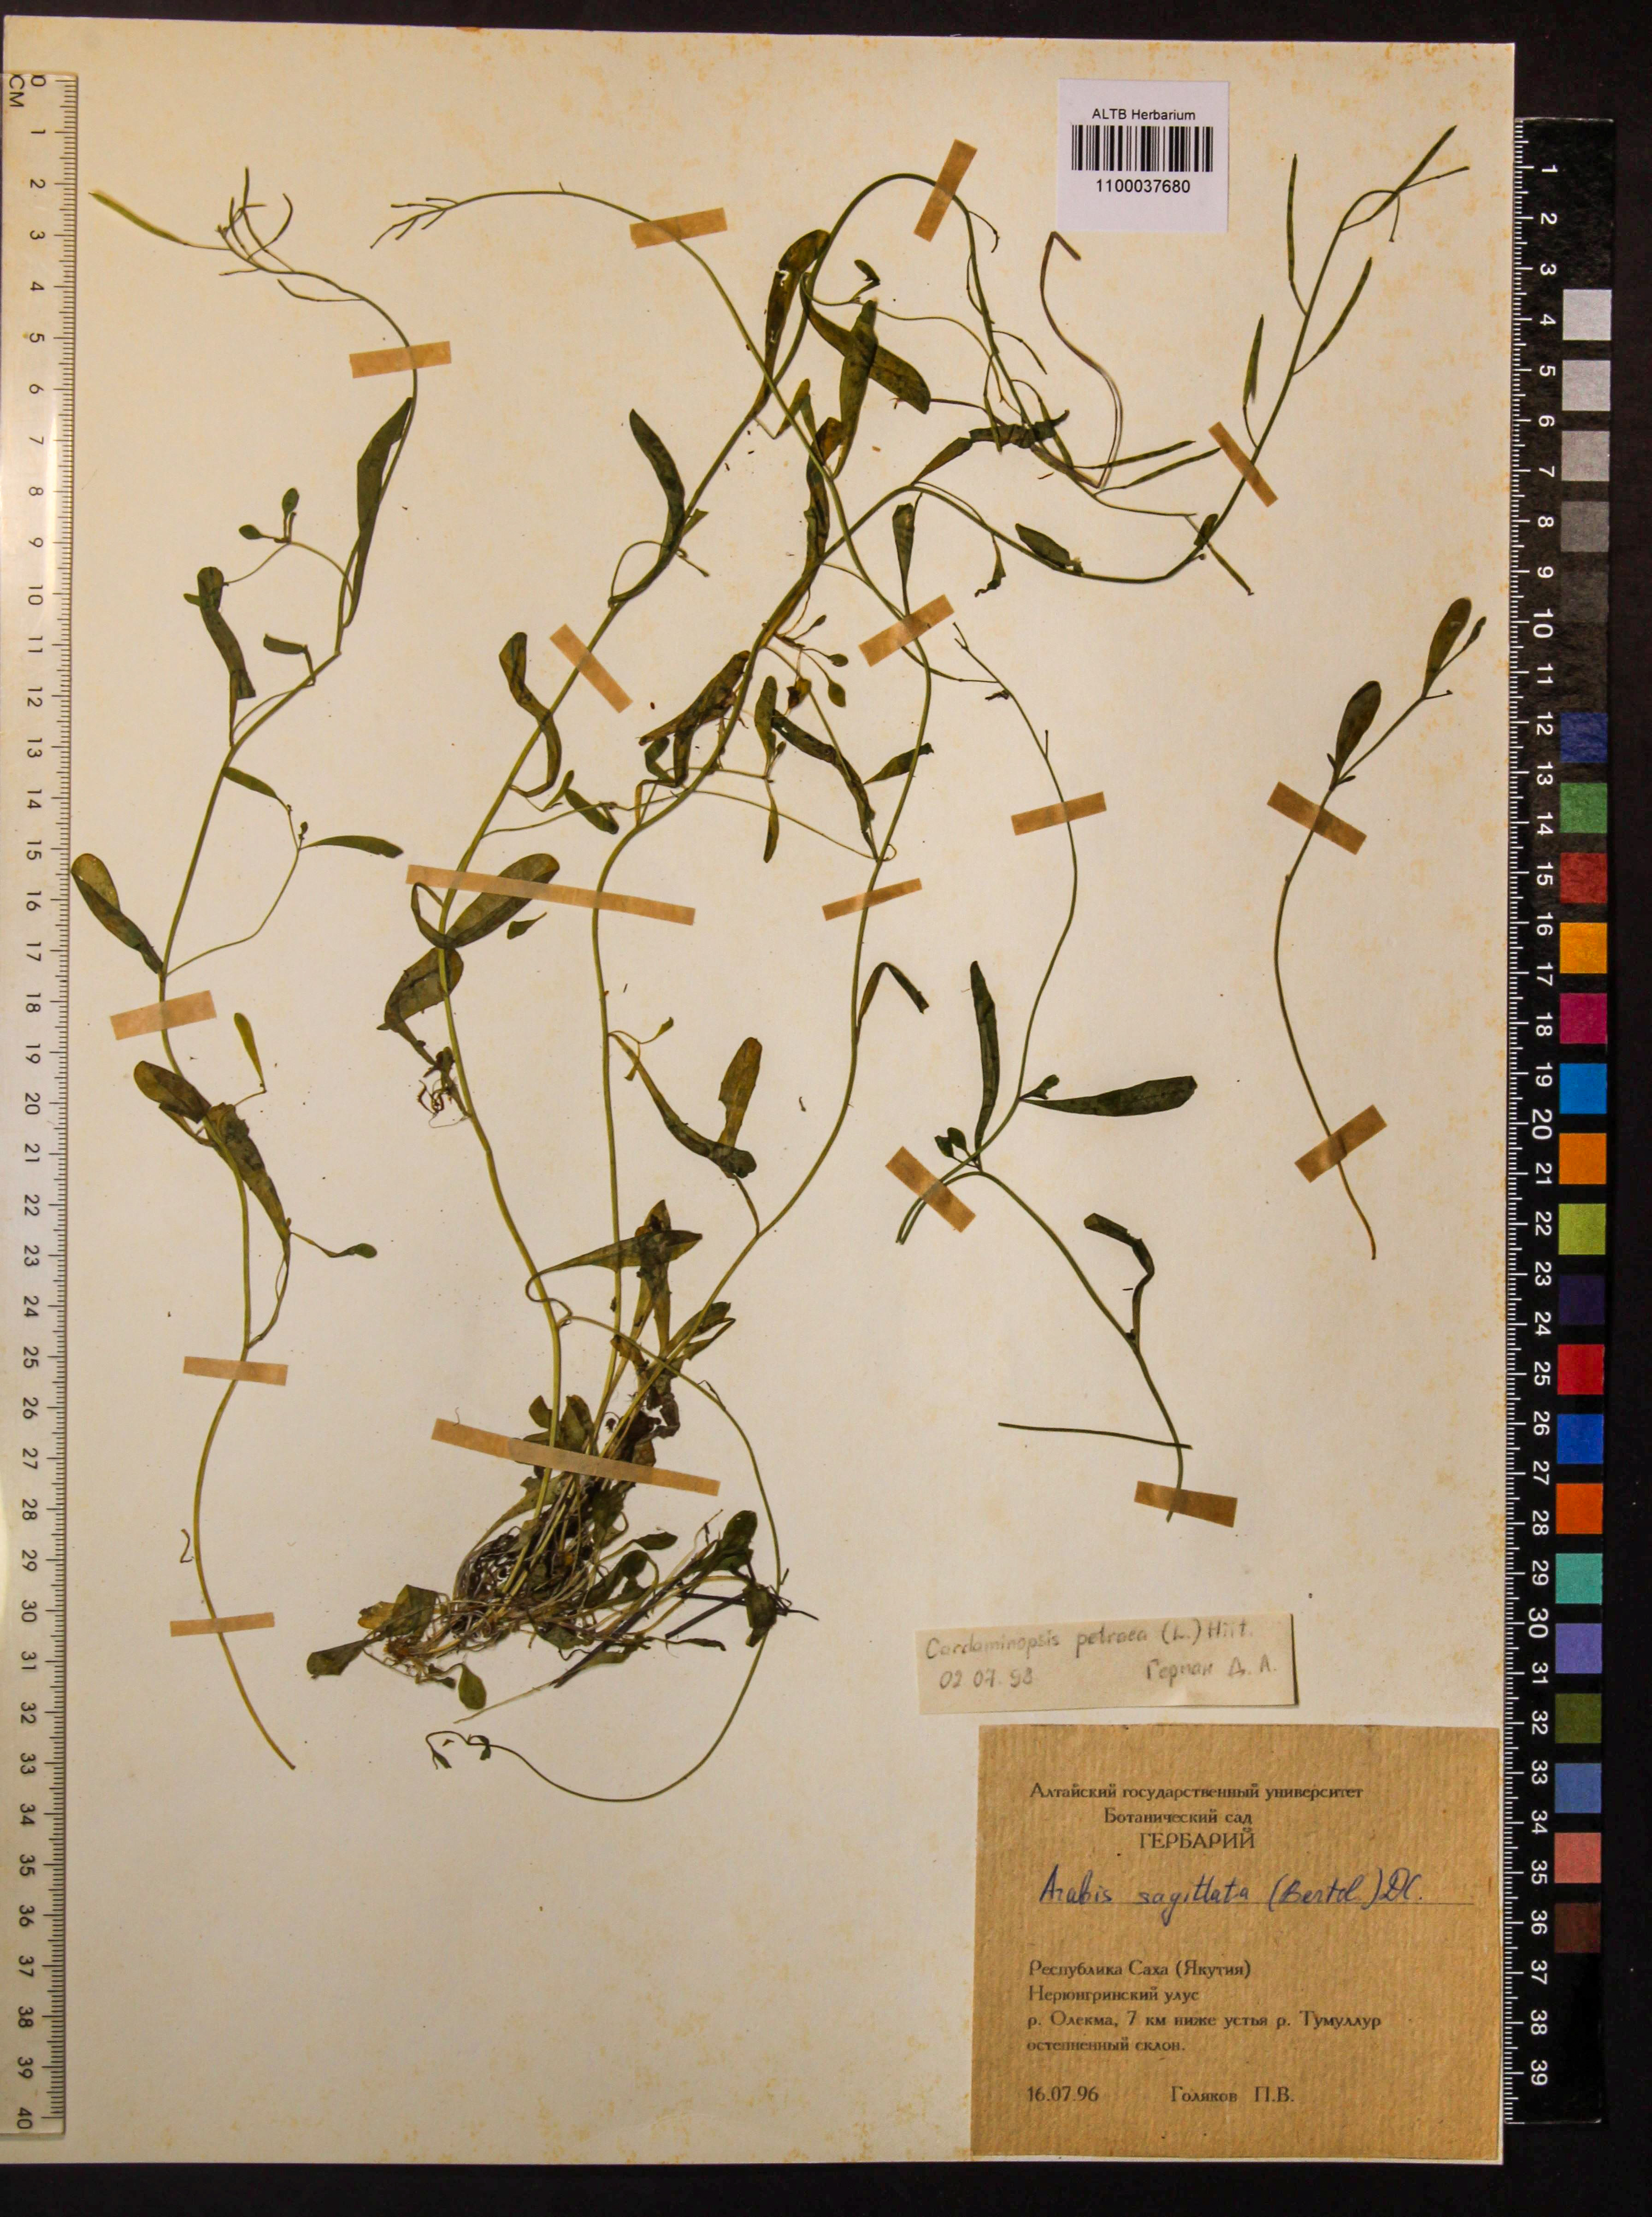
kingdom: Plantae
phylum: Tracheophyta
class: Magnoliopsida
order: Brassicales
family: Brassicaceae
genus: Arabidopsis
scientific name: Arabidopsis lyrata
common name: Lyrate rockcress
